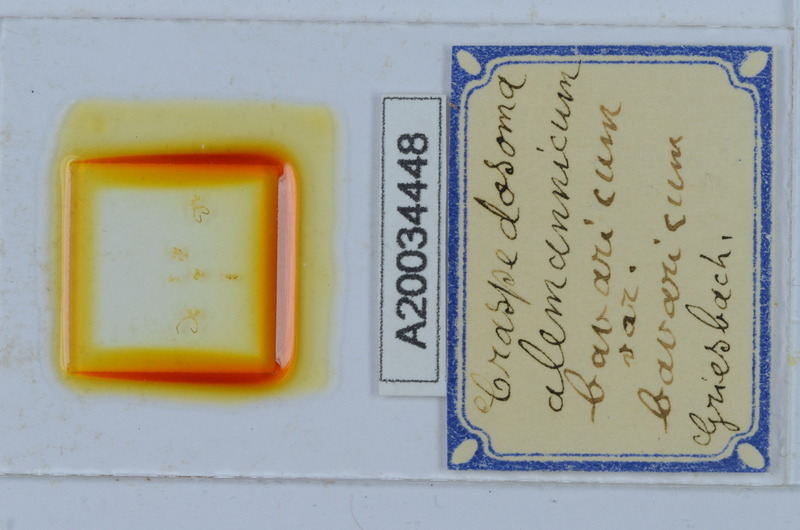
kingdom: Animalia
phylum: Arthropoda
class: Diplopoda
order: Chordeumatida
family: Craspedosomatidae
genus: Craspedosoma
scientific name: Craspedosoma rawlinsii
